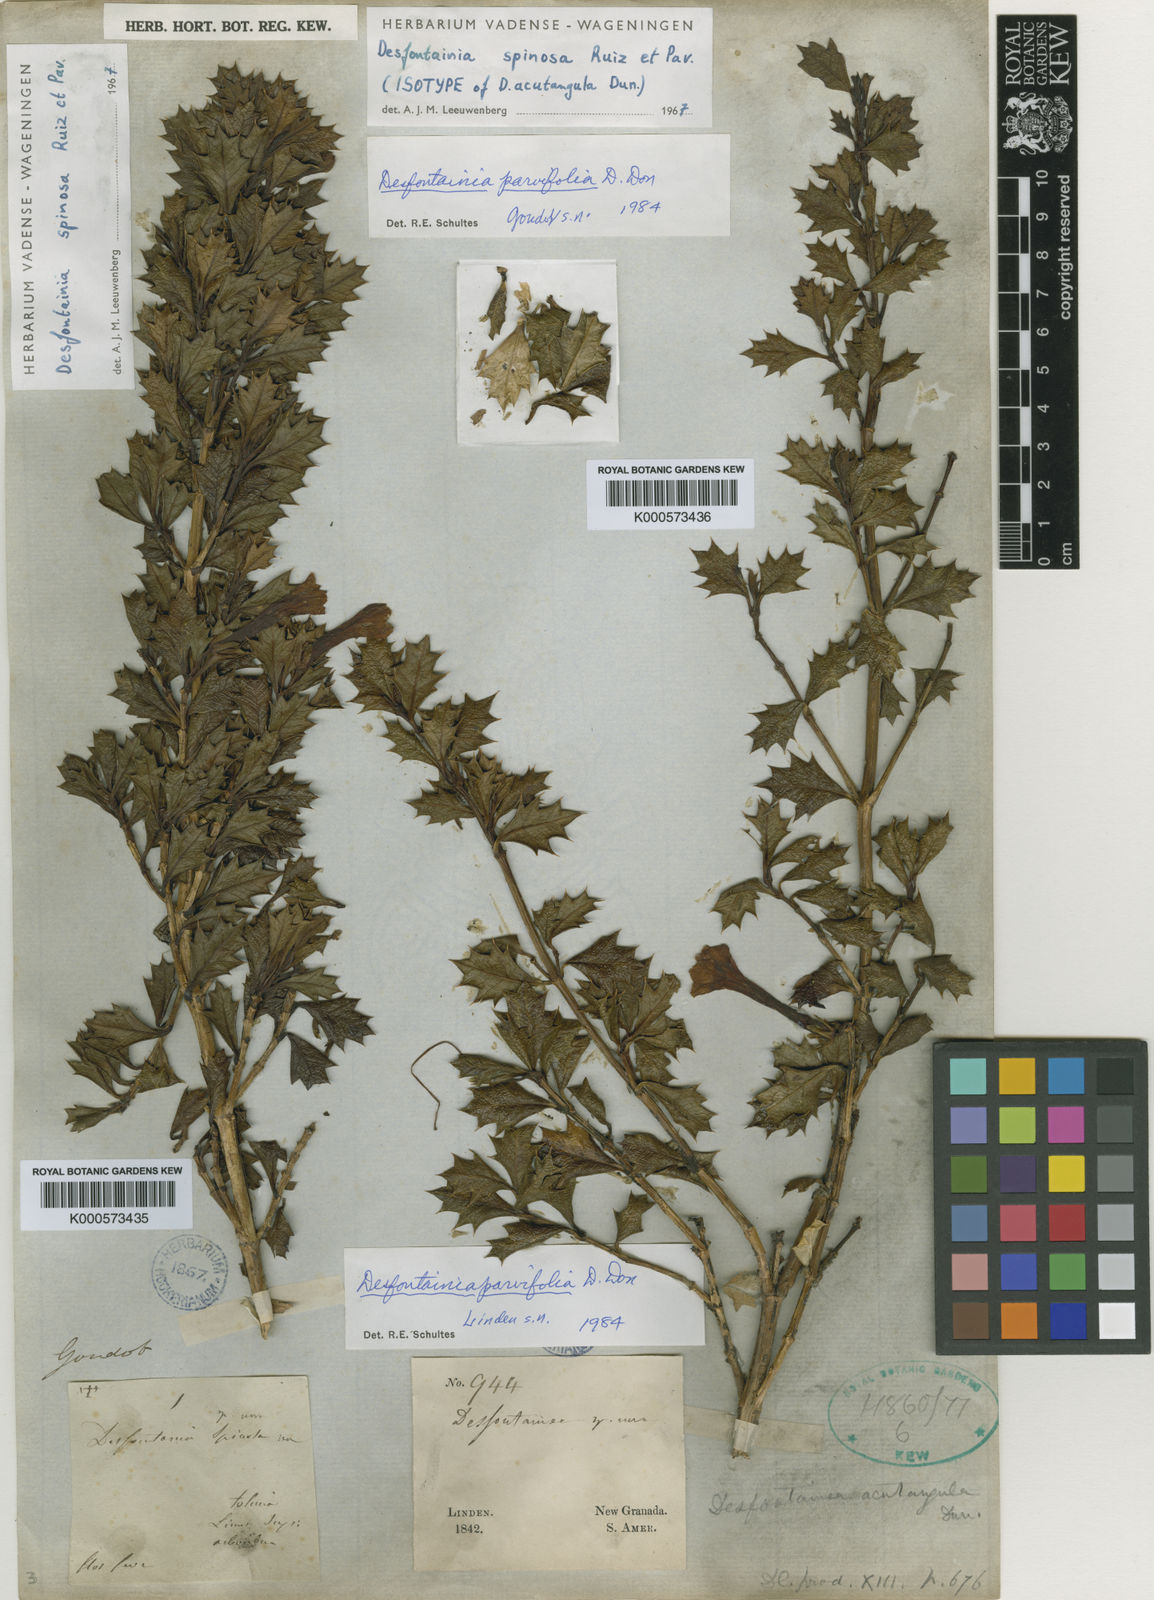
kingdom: Plantae
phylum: Tracheophyta
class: Magnoliopsida
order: Bruniales
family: Columelliaceae
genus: Desfontainia
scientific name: Desfontainia splendens
